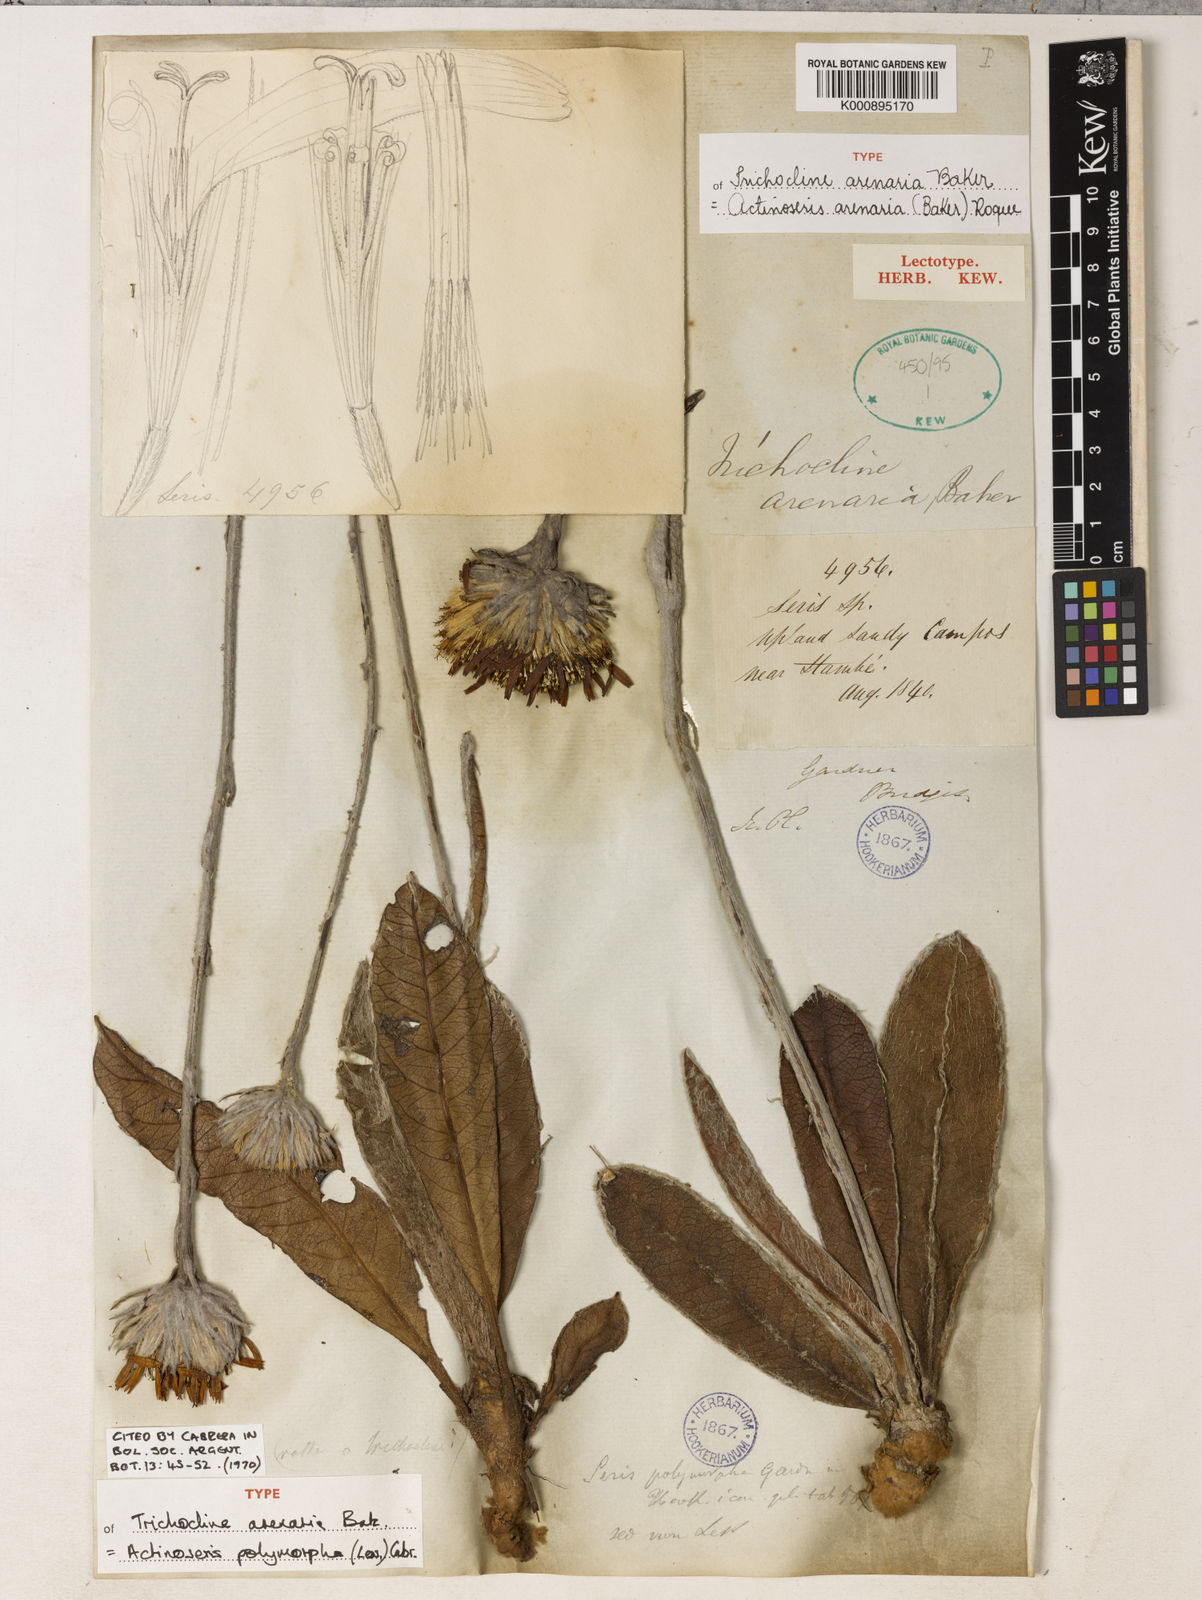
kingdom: Plantae
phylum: Tracheophyta
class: Magnoliopsida
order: Asterales
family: Asteraceae
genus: Richterago
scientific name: Richterago arenaria
